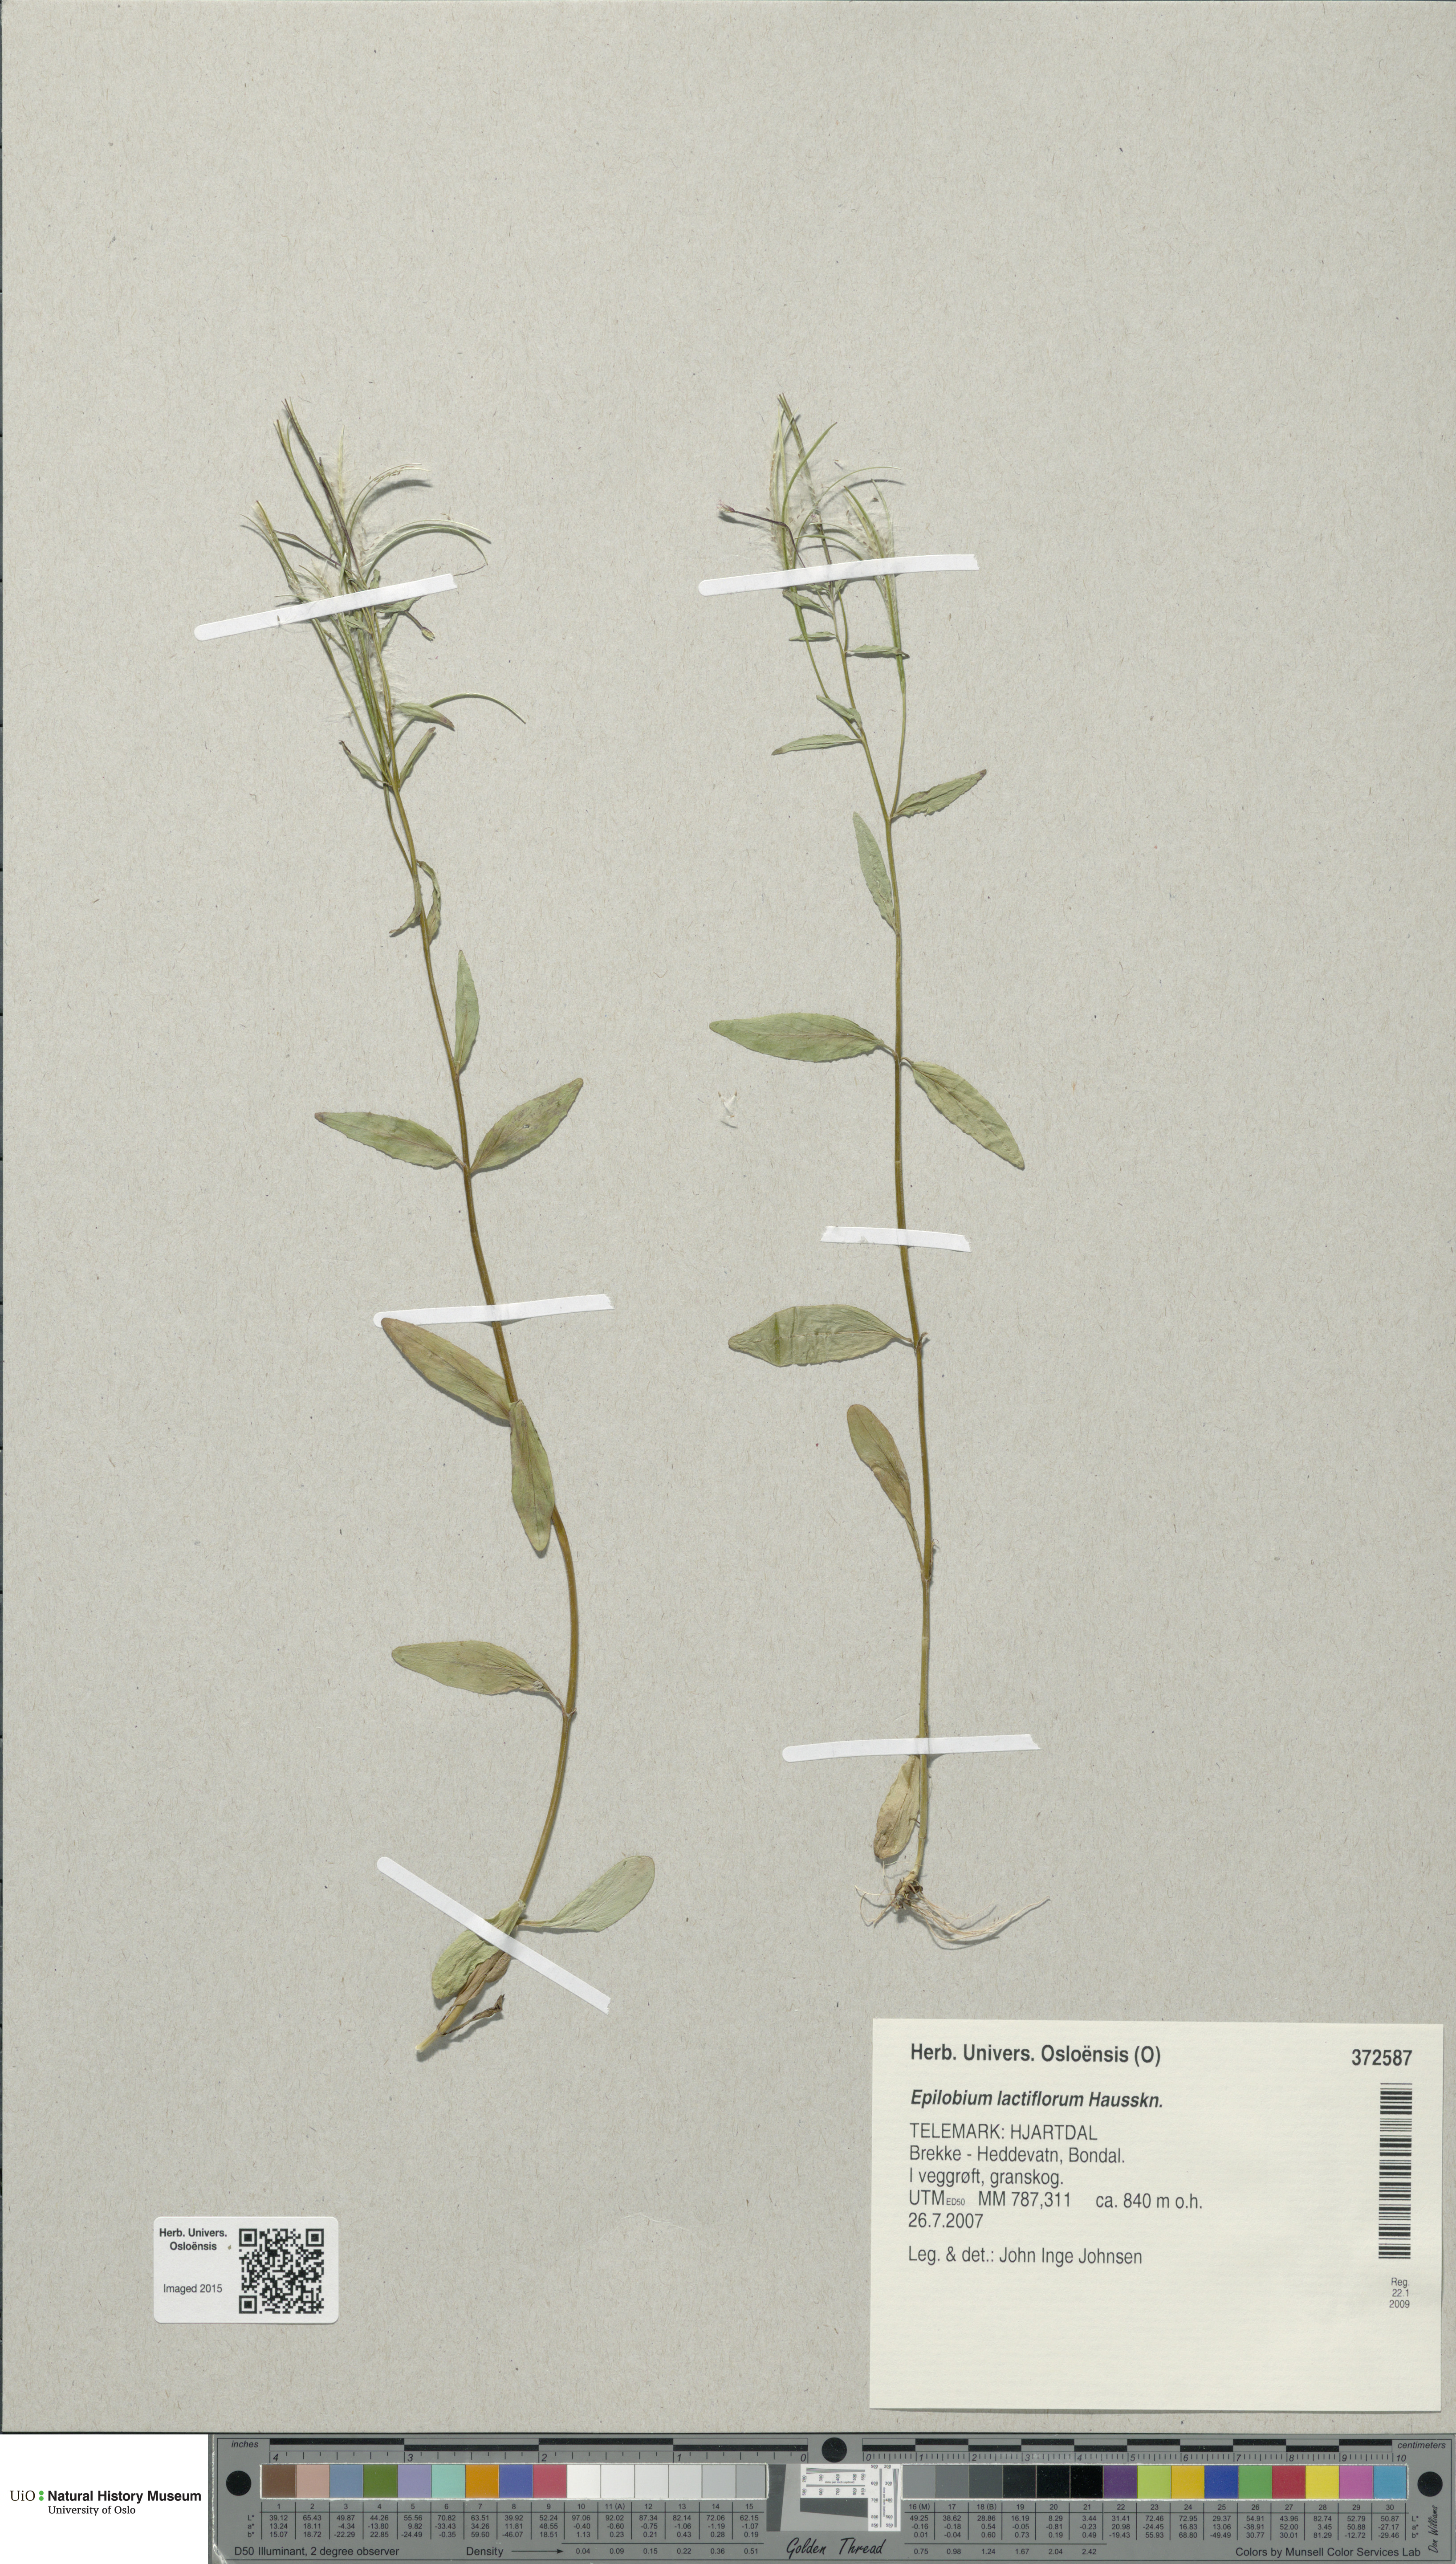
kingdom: Plantae
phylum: Tracheophyta
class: Magnoliopsida
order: Myrtales
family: Onagraceae
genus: Epilobium
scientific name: Epilobium lactiflorum
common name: Milkflower willowherb
